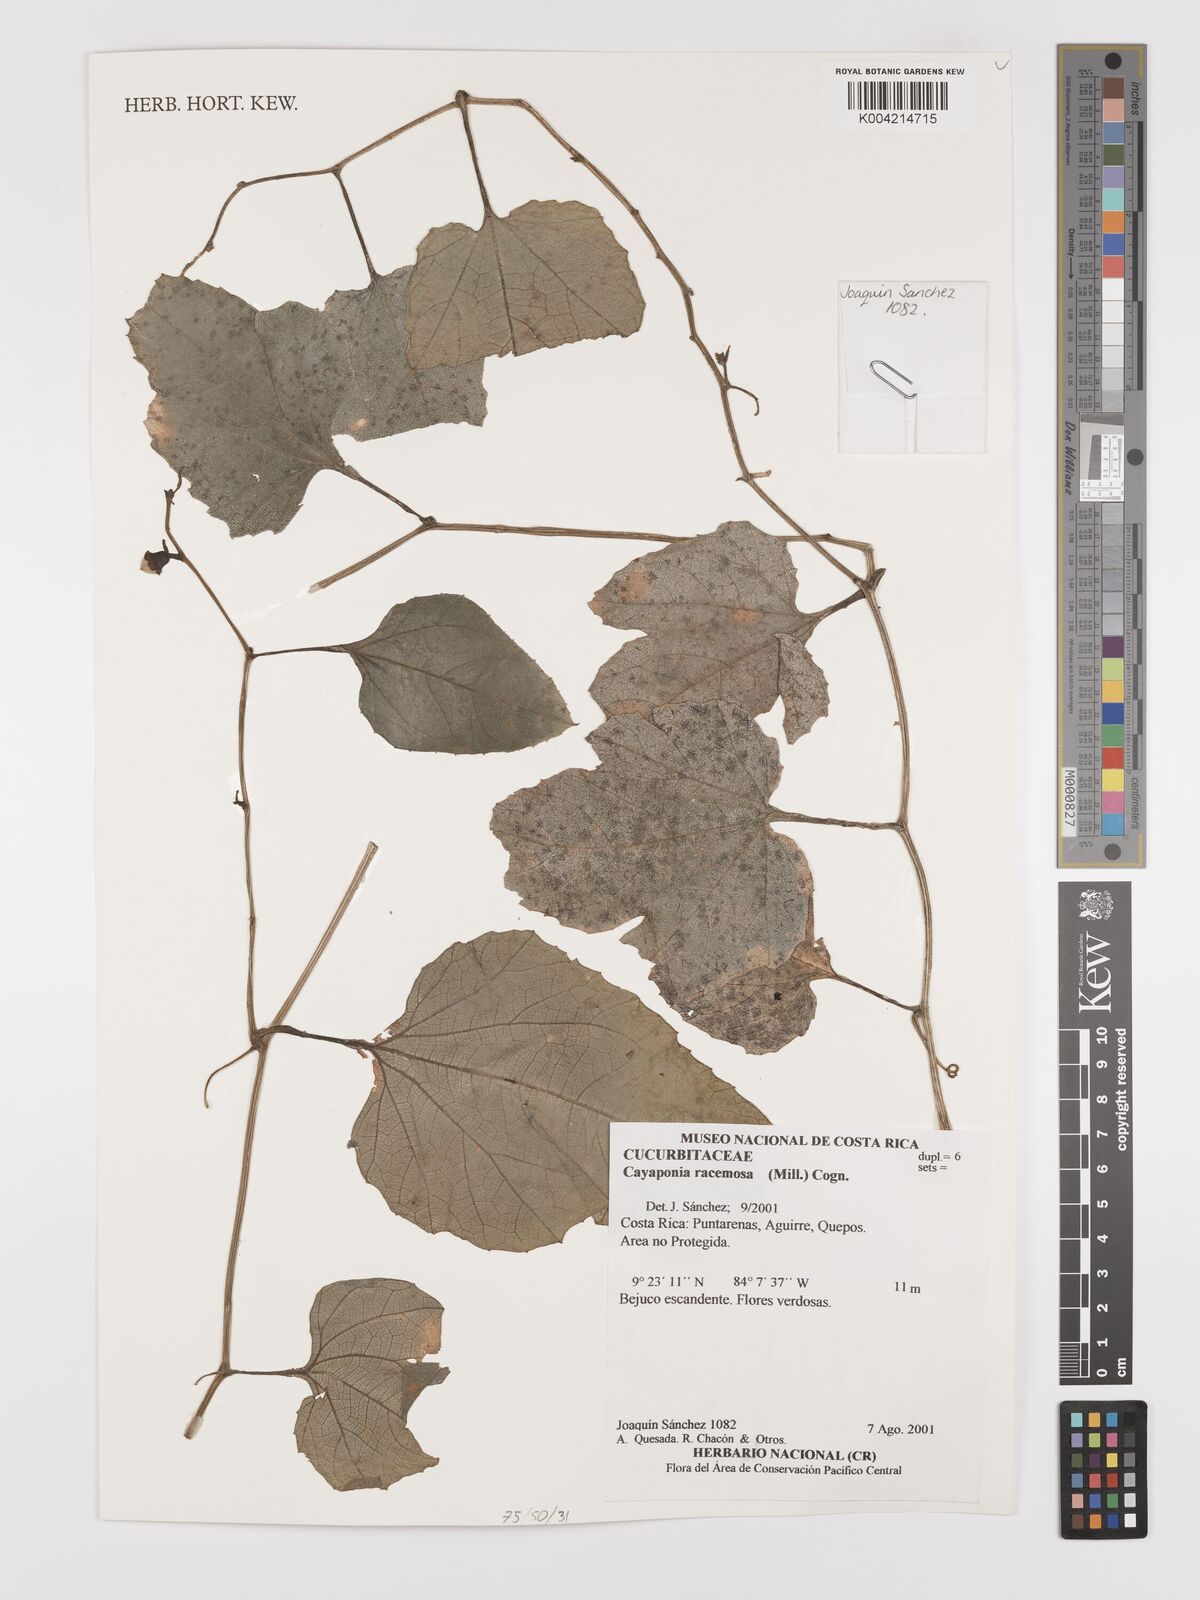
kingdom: Plantae
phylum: Tracheophyta
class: Magnoliopsida
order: Cucurbitales
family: Cucurbitaceae
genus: Cayaponia
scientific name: Cayaponia racemosa
